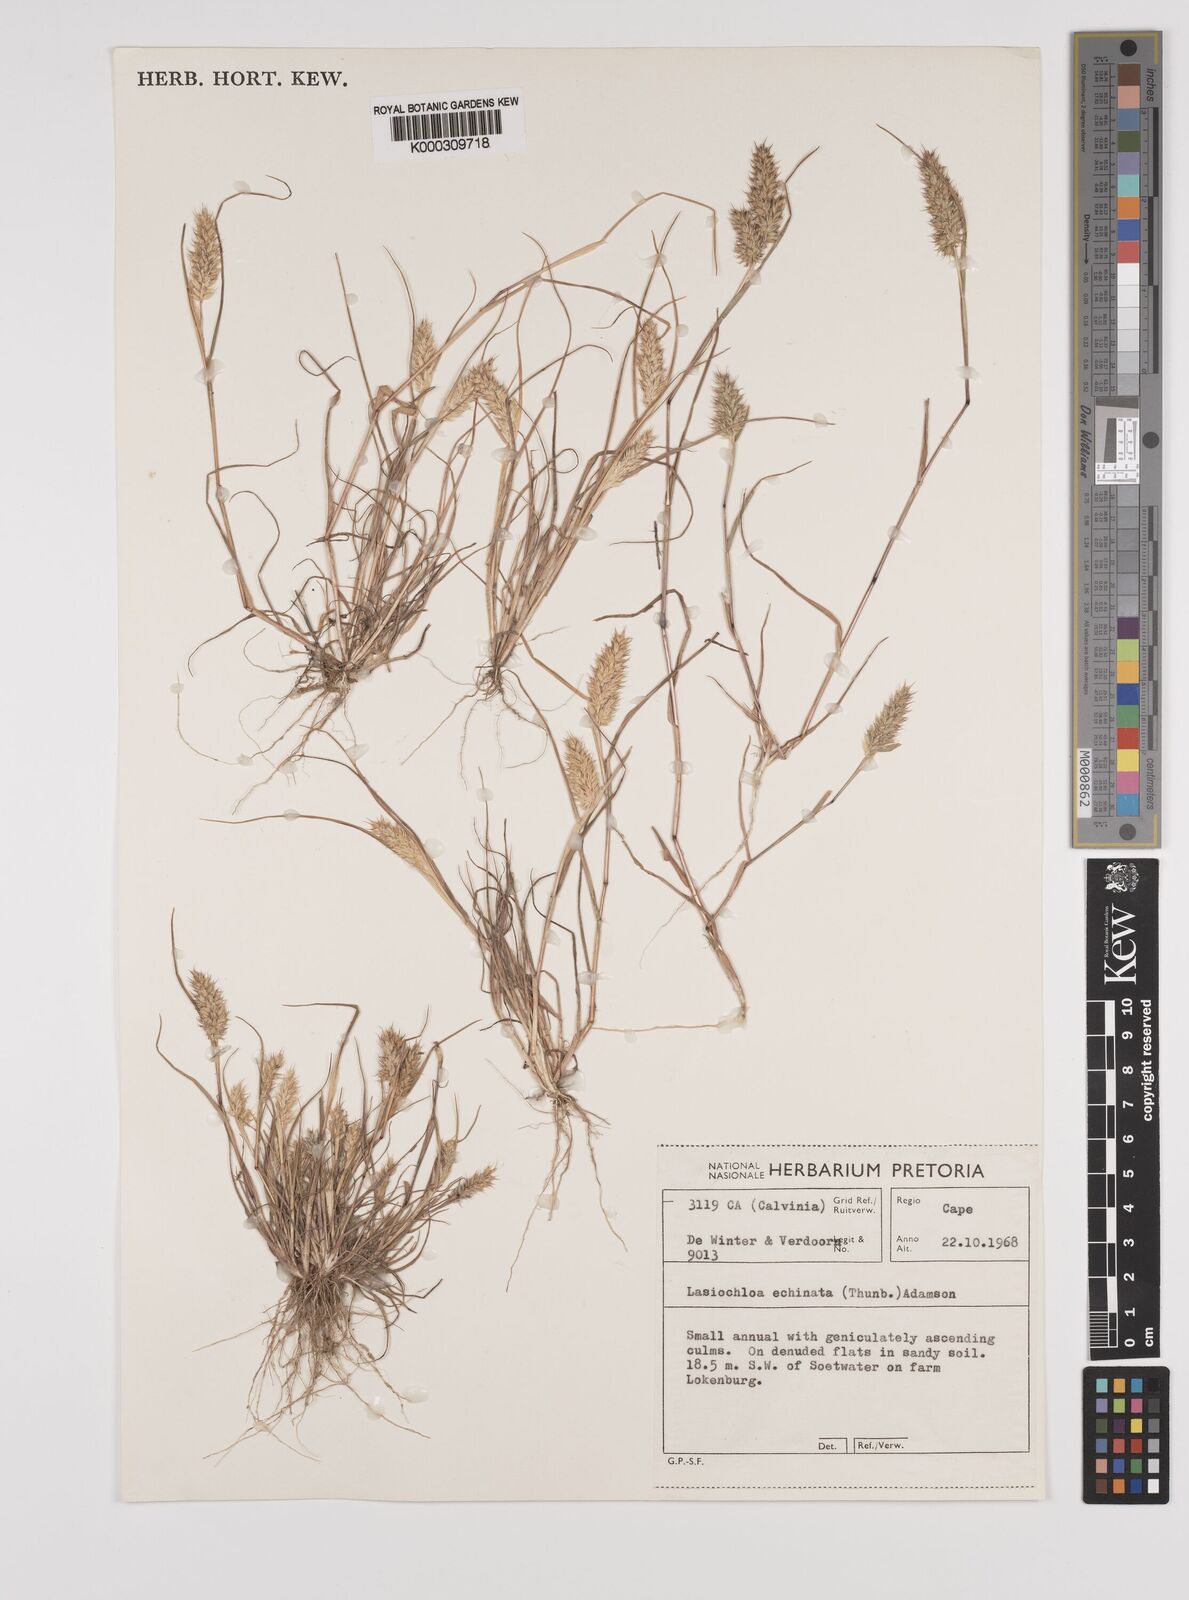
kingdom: Plantae
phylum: Tracheophyta
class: Liliopsida
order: Poales
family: Poaceae
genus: Tribolium
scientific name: Tribolium echinatum
